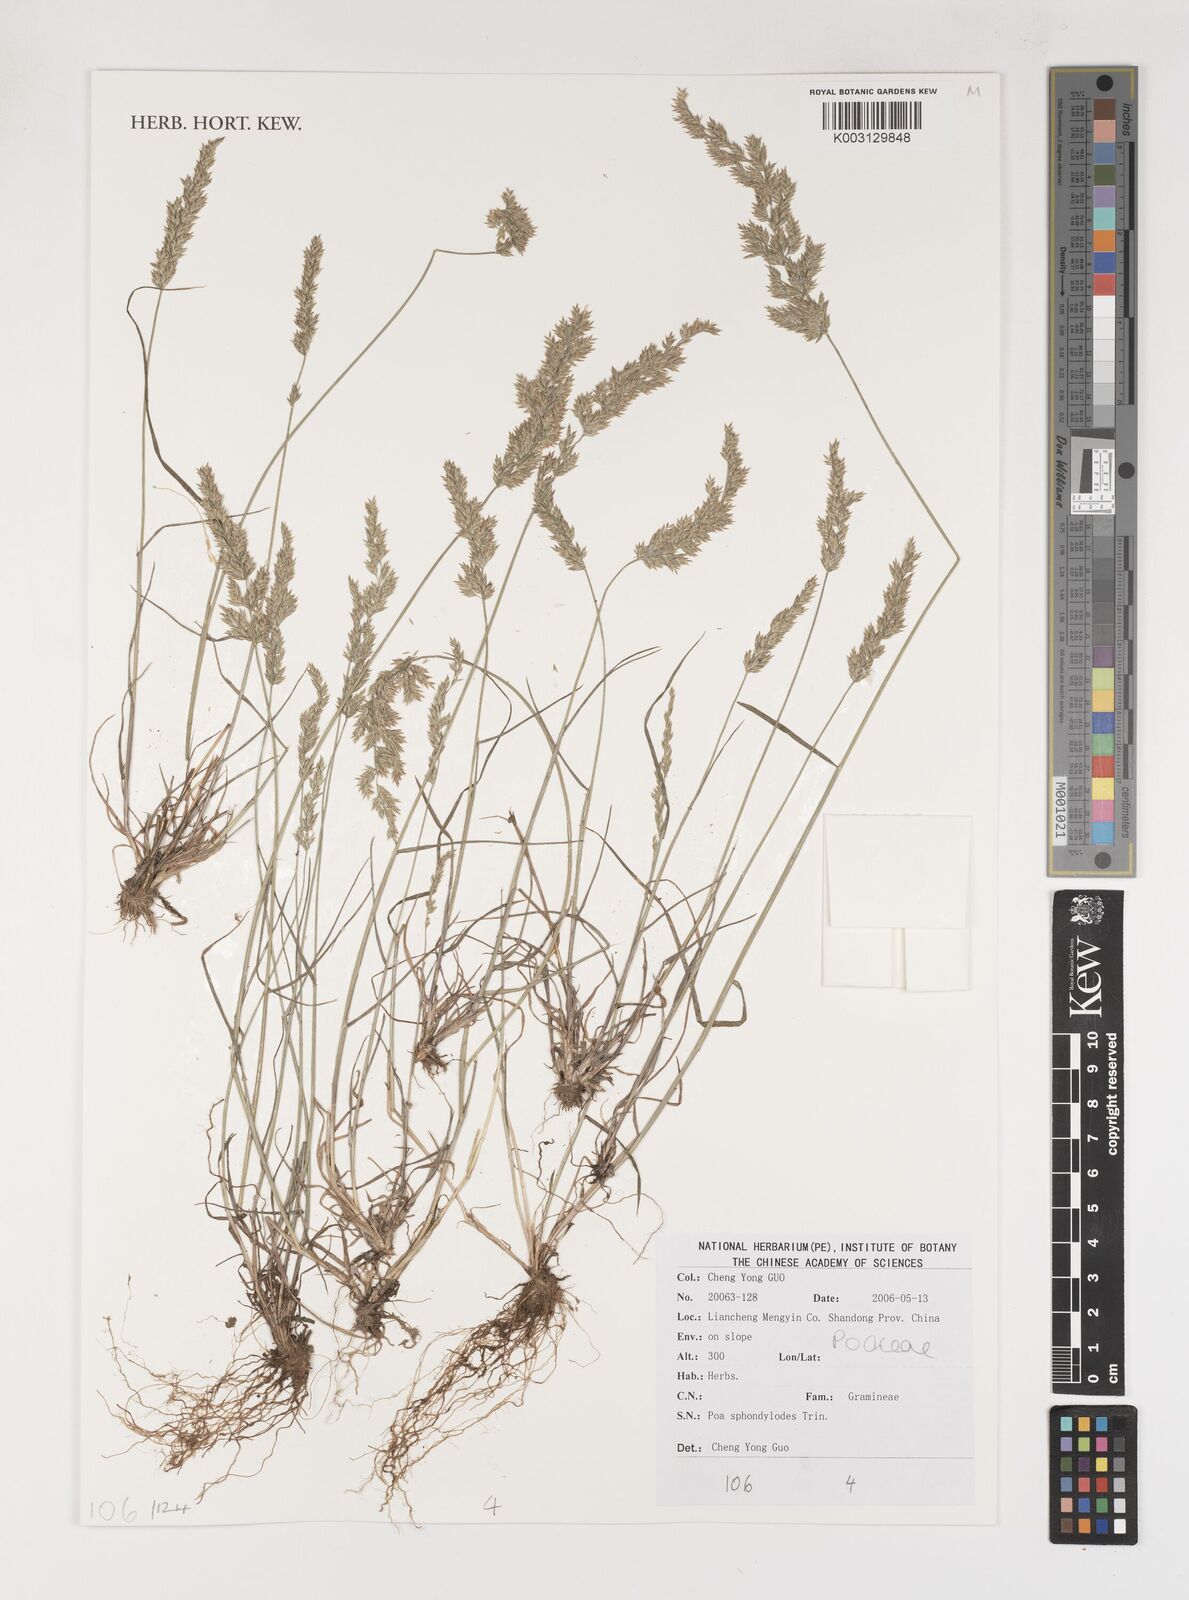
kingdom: Plantae
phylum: Tracheophyta
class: Liliopsida
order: Poales
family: Poaceae
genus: Poa
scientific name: Poa sphondylodes
